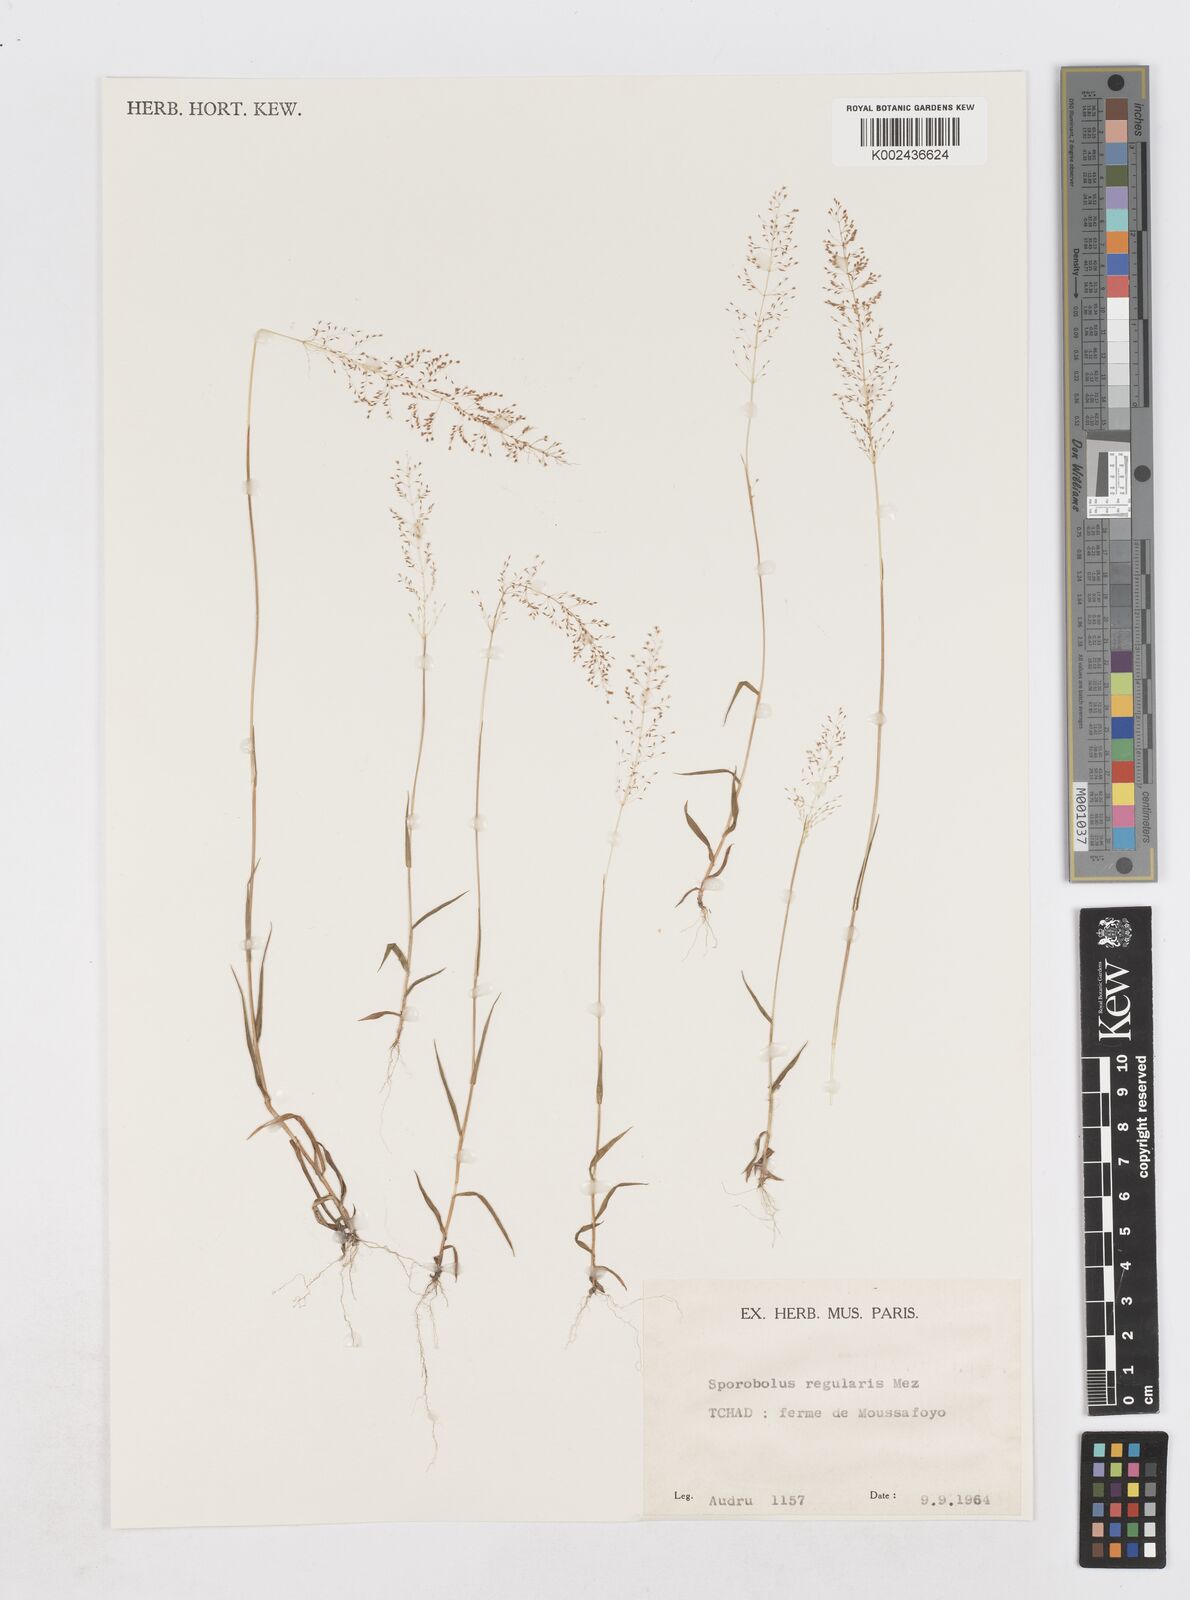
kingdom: Plantae
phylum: Tracheophyta
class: Liliopsida
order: Poales
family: Poaceae
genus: Sporobolus
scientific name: Sporobolus welwitschii
